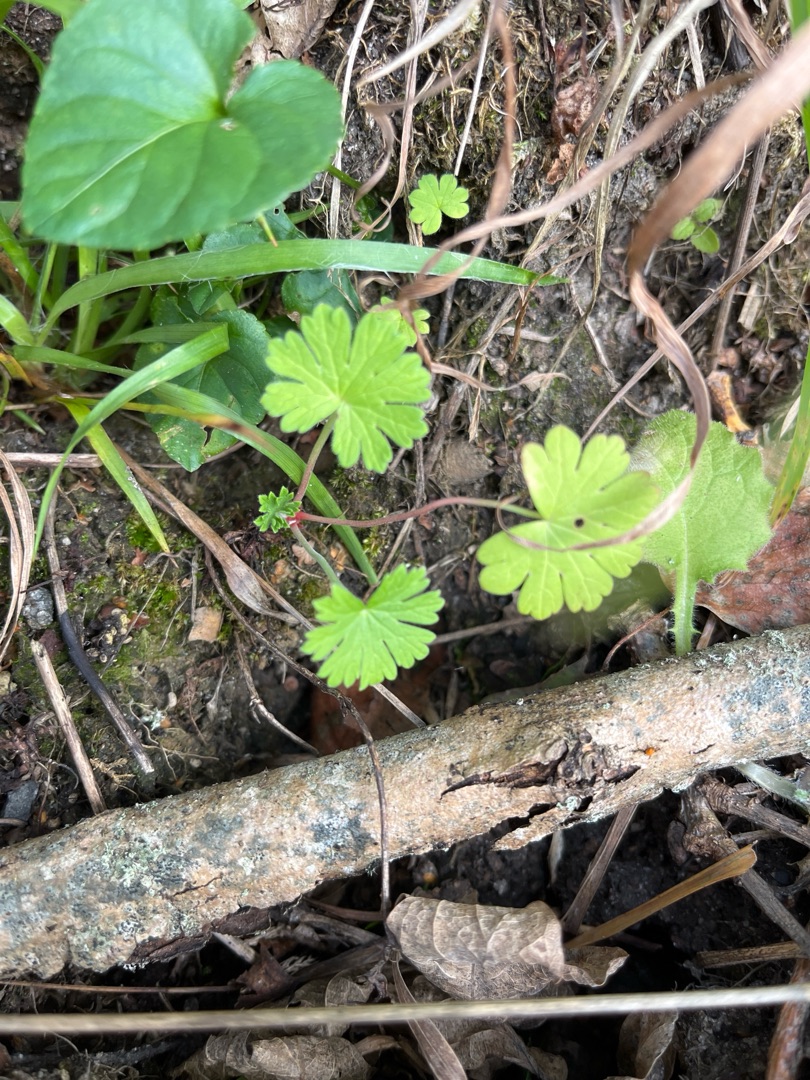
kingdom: Plantae
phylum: Tracheophyta
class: Magnoliopsida
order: Geraniales
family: Geraniaceae
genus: Geranium
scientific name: Geranium pusillum
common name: Liden storkenæb
